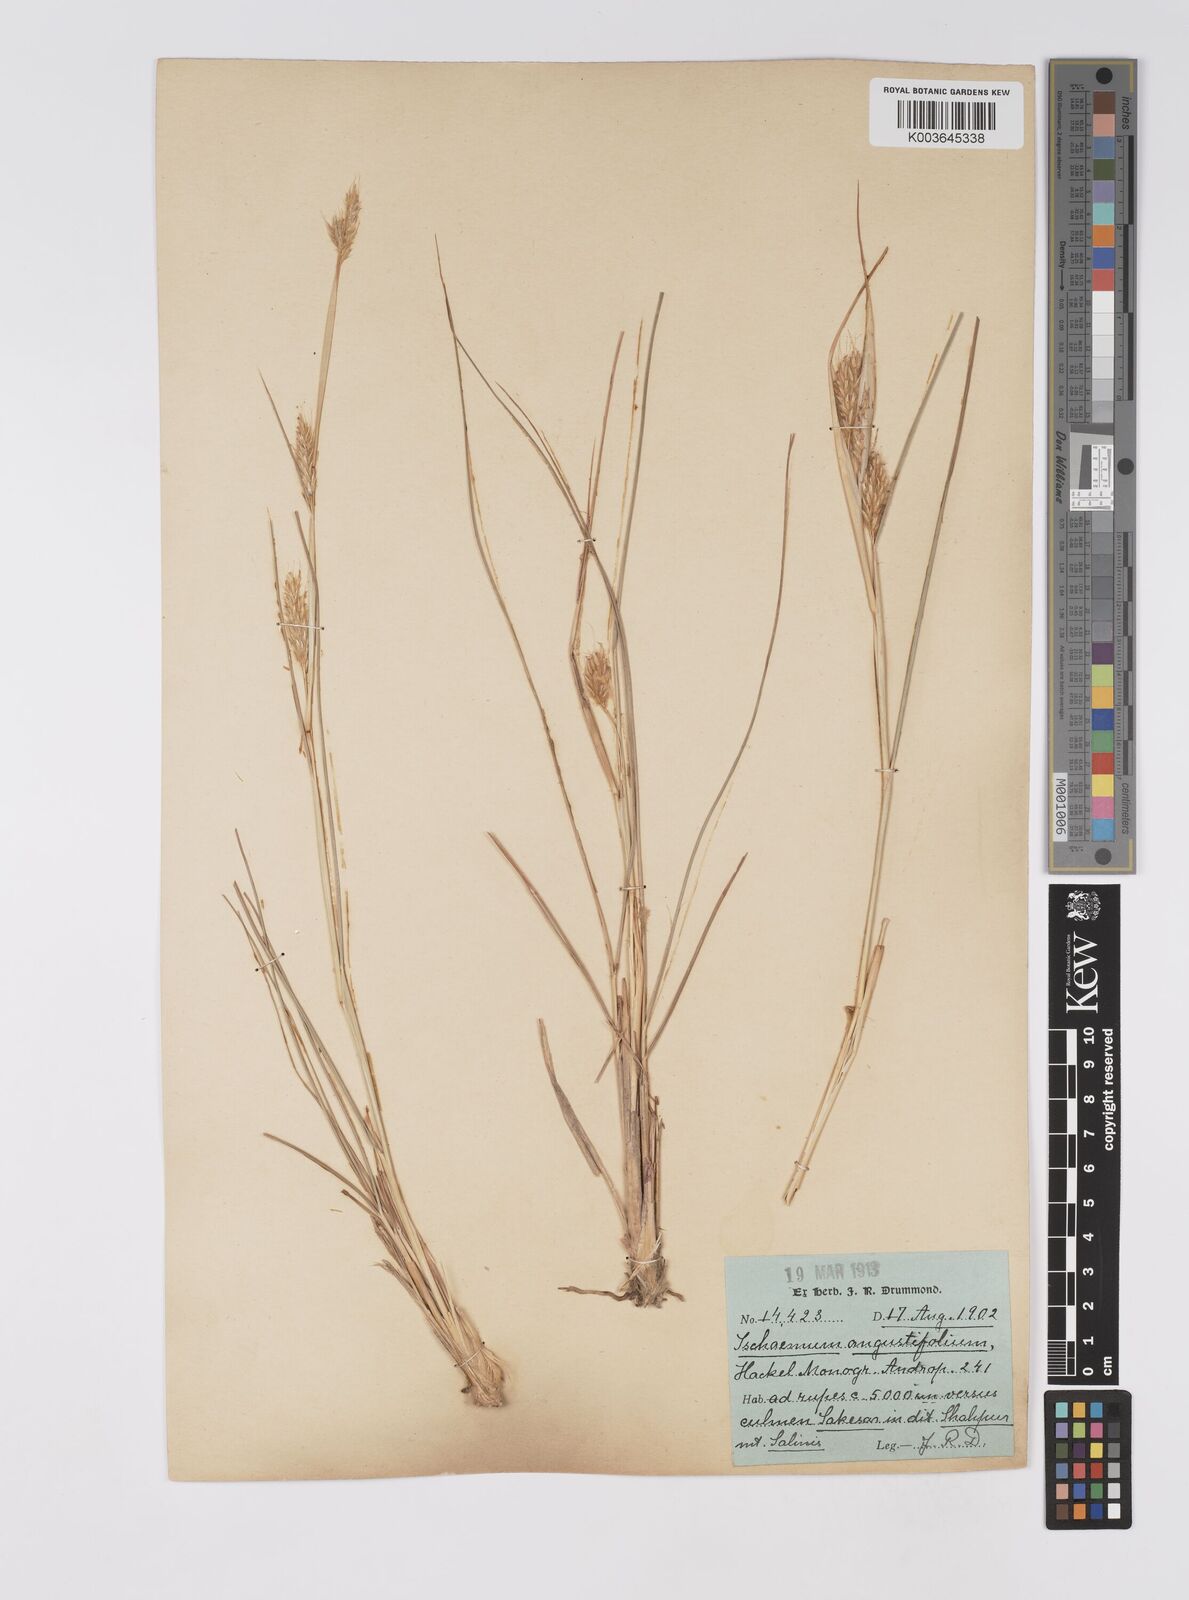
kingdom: Plantae
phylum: Tracheophyta
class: Liliopsida
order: Poales
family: Poaceae
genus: Eulaliopsis
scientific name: Eulaliopsis binata
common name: Baib grass
